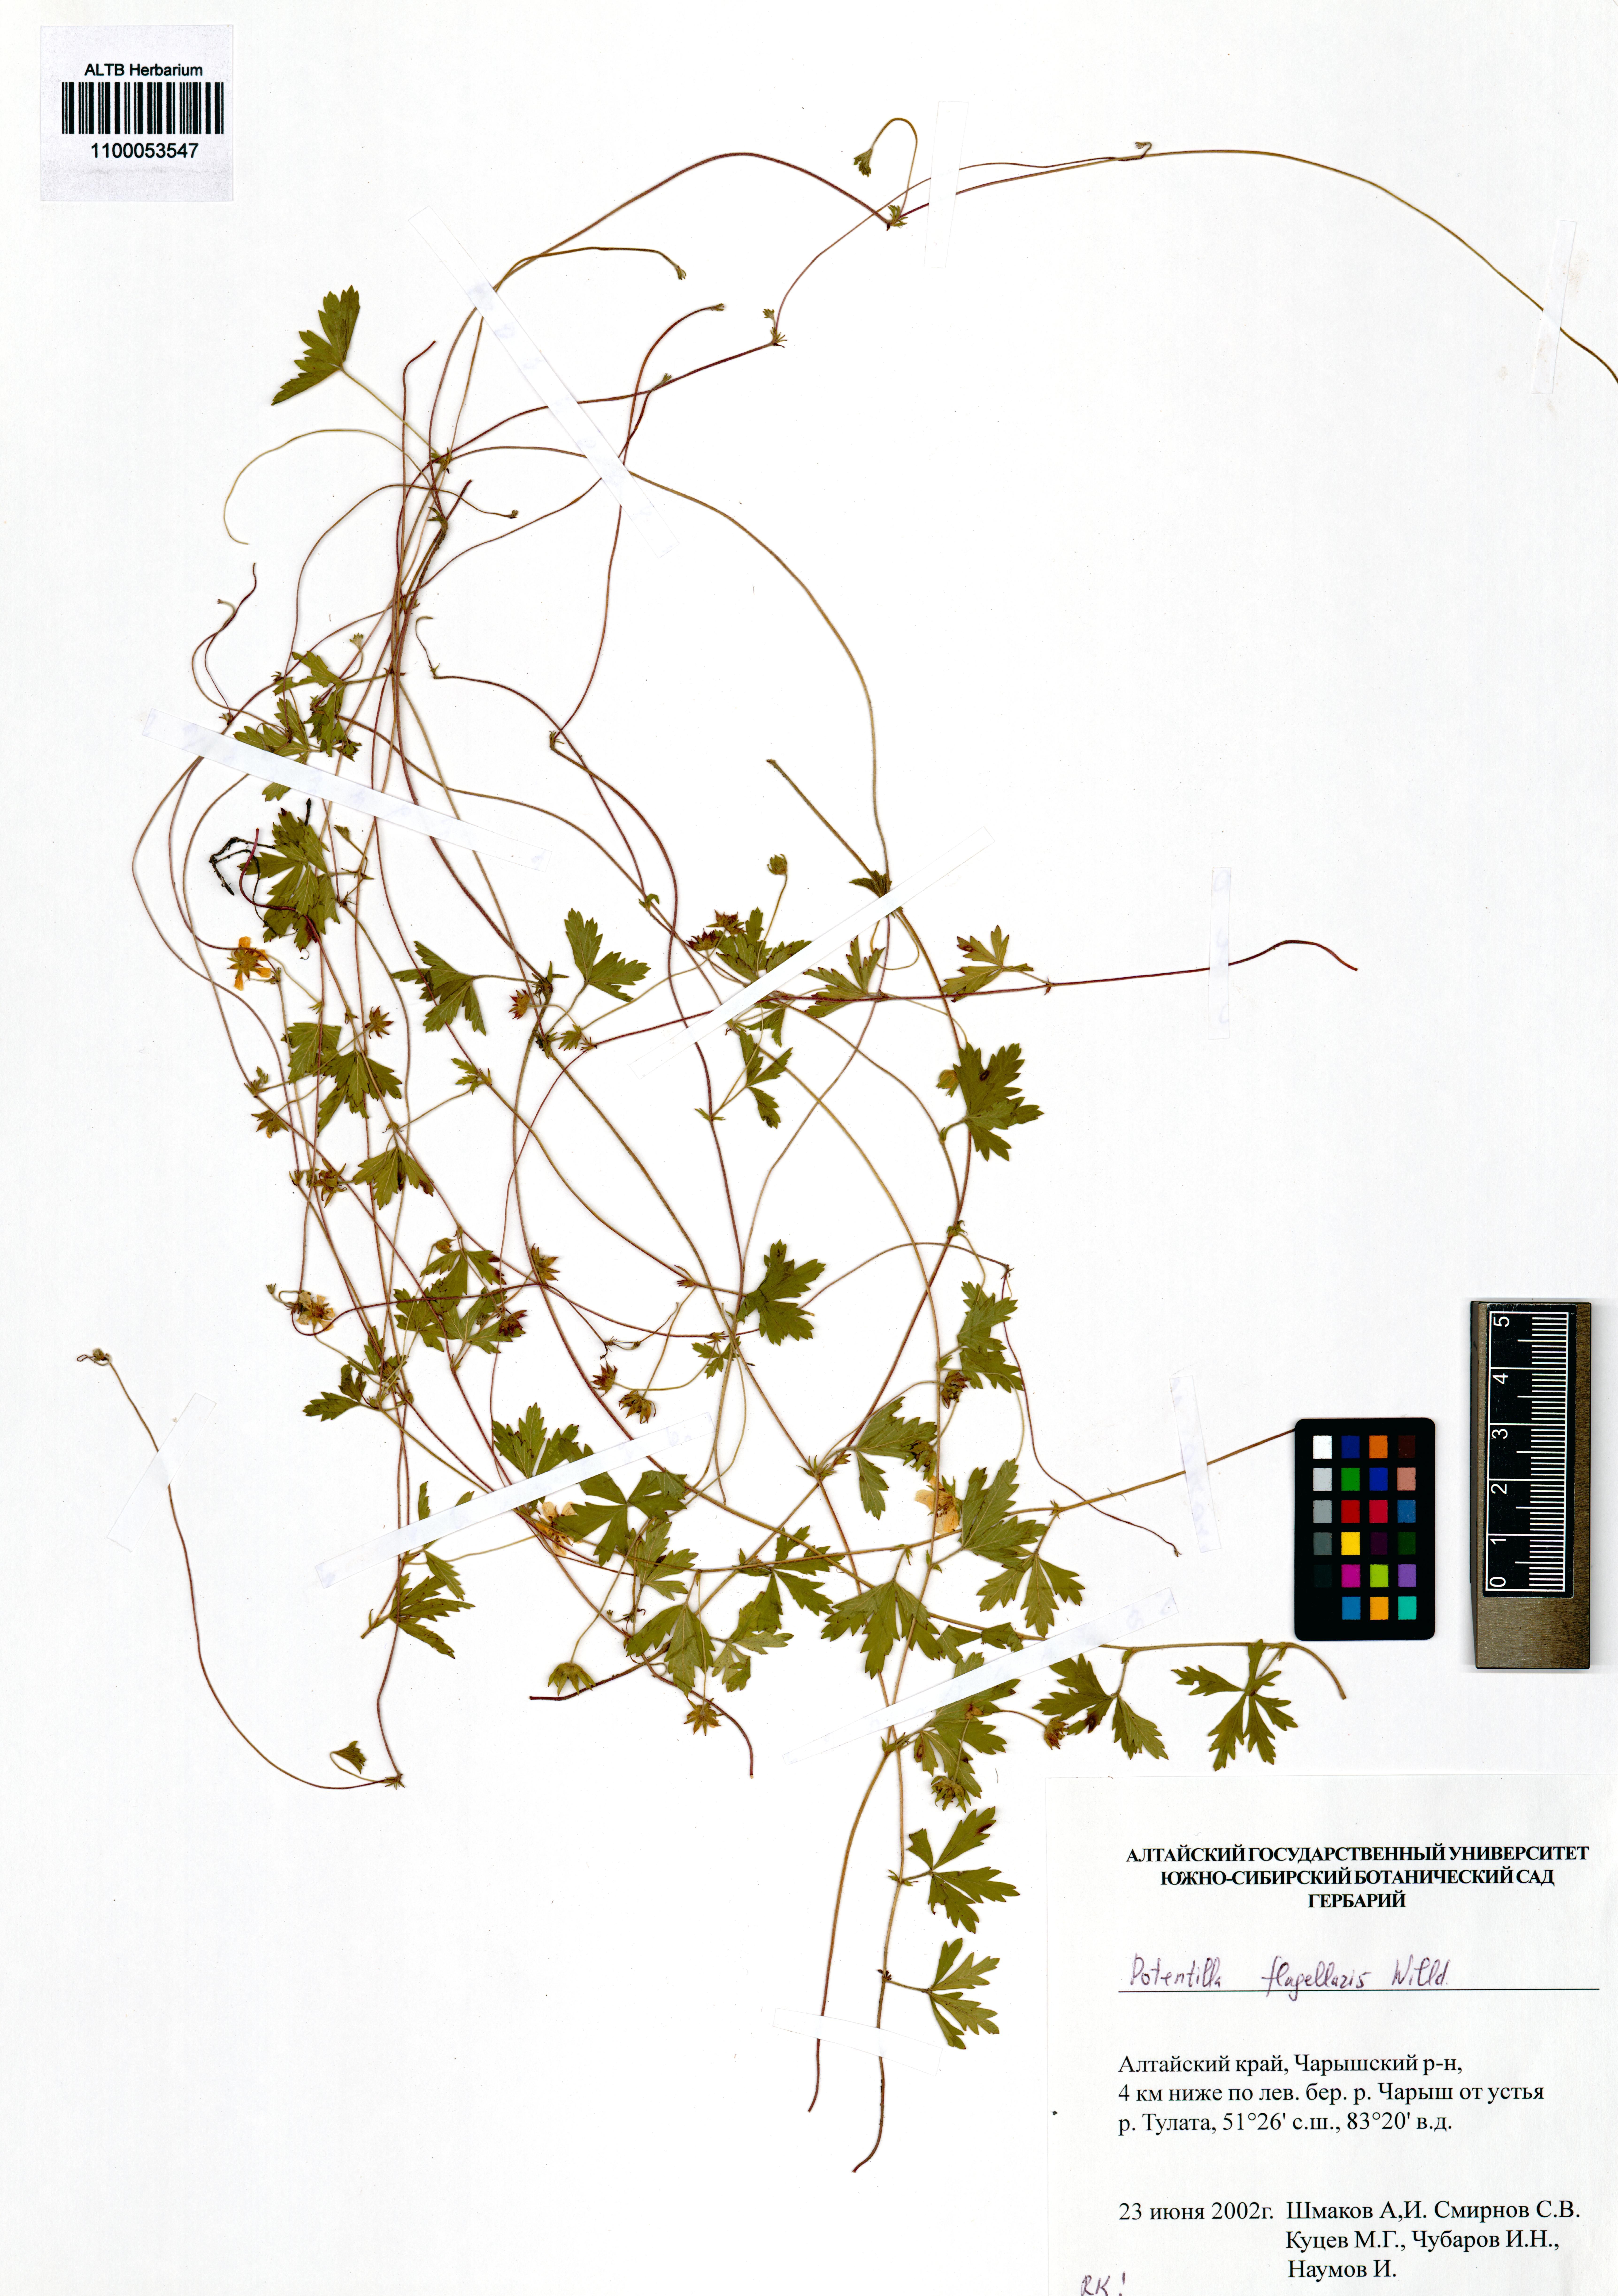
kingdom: Plantae
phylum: Tracheophyta
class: Magnoliopsida
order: Rosales
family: Rosaceae
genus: Potentilla
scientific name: Potentilla flagellaris
